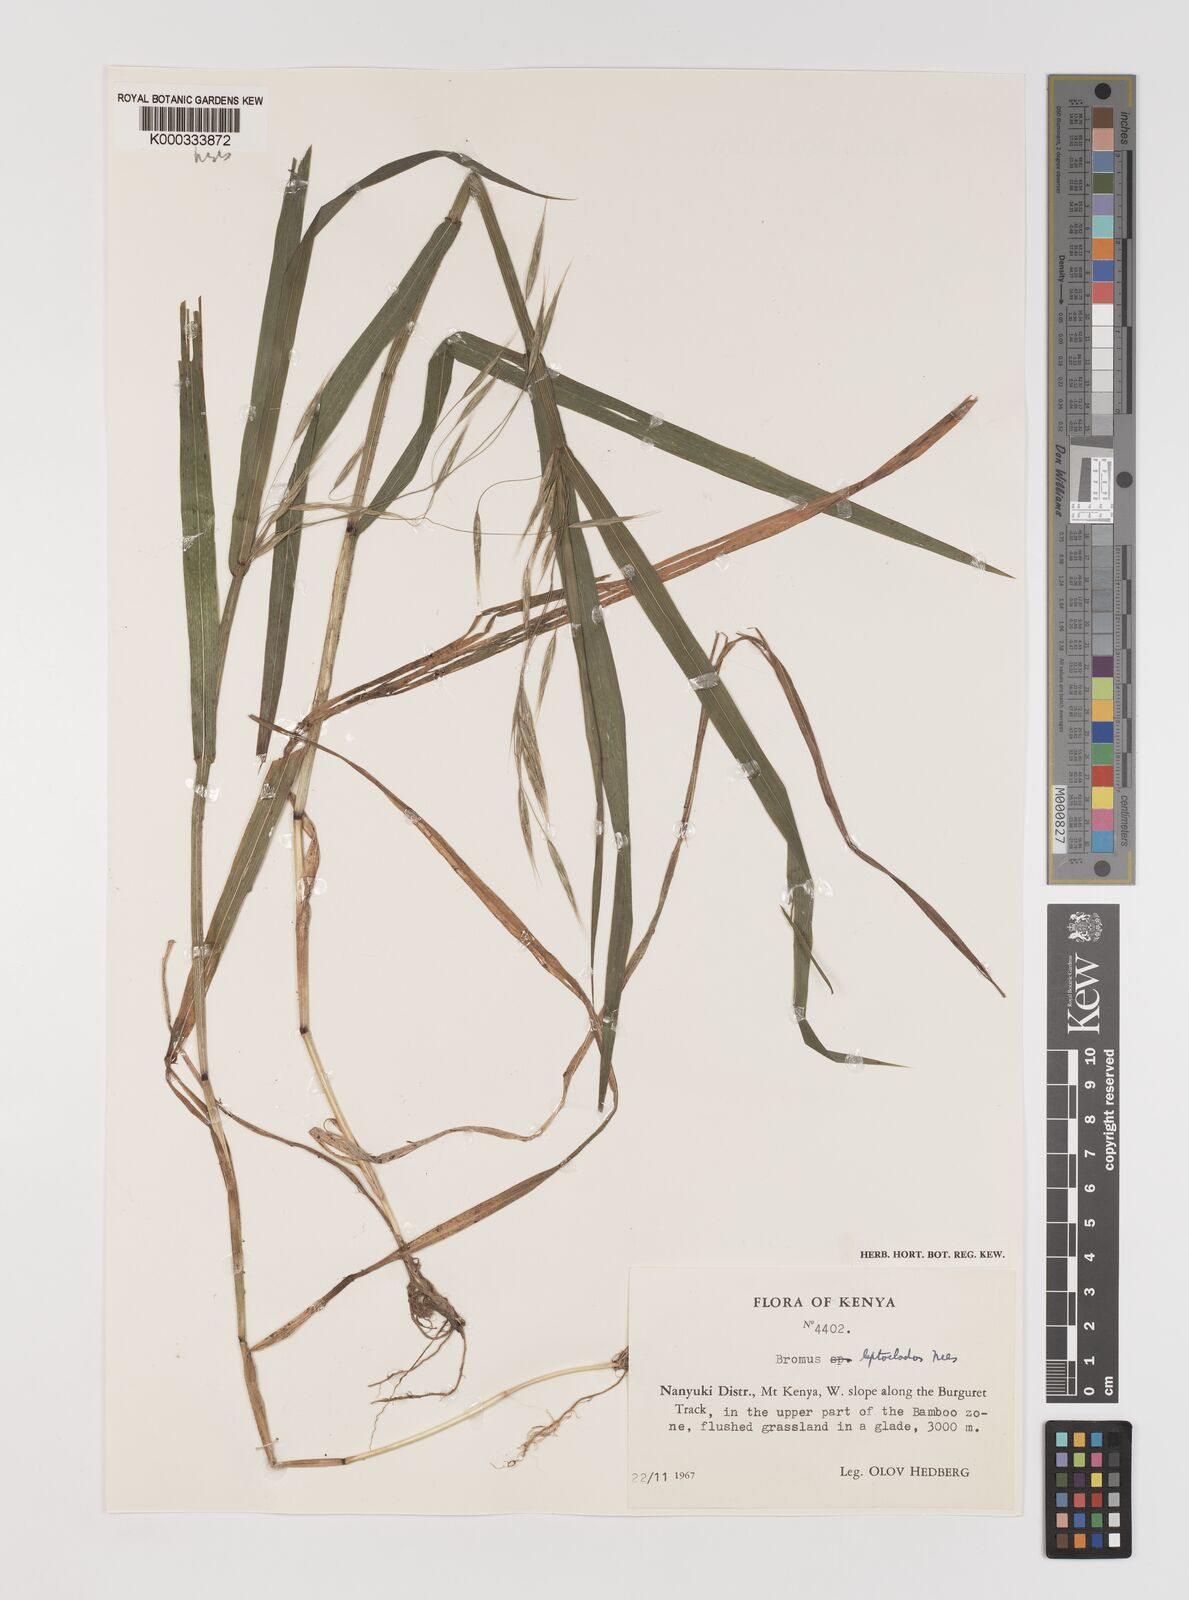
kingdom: Plantae
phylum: Tracheophyta
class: Liliopsida
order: Poales
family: Poaceae
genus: Bromus
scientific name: Bromus leptoclados
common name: Mountain bromegrass
